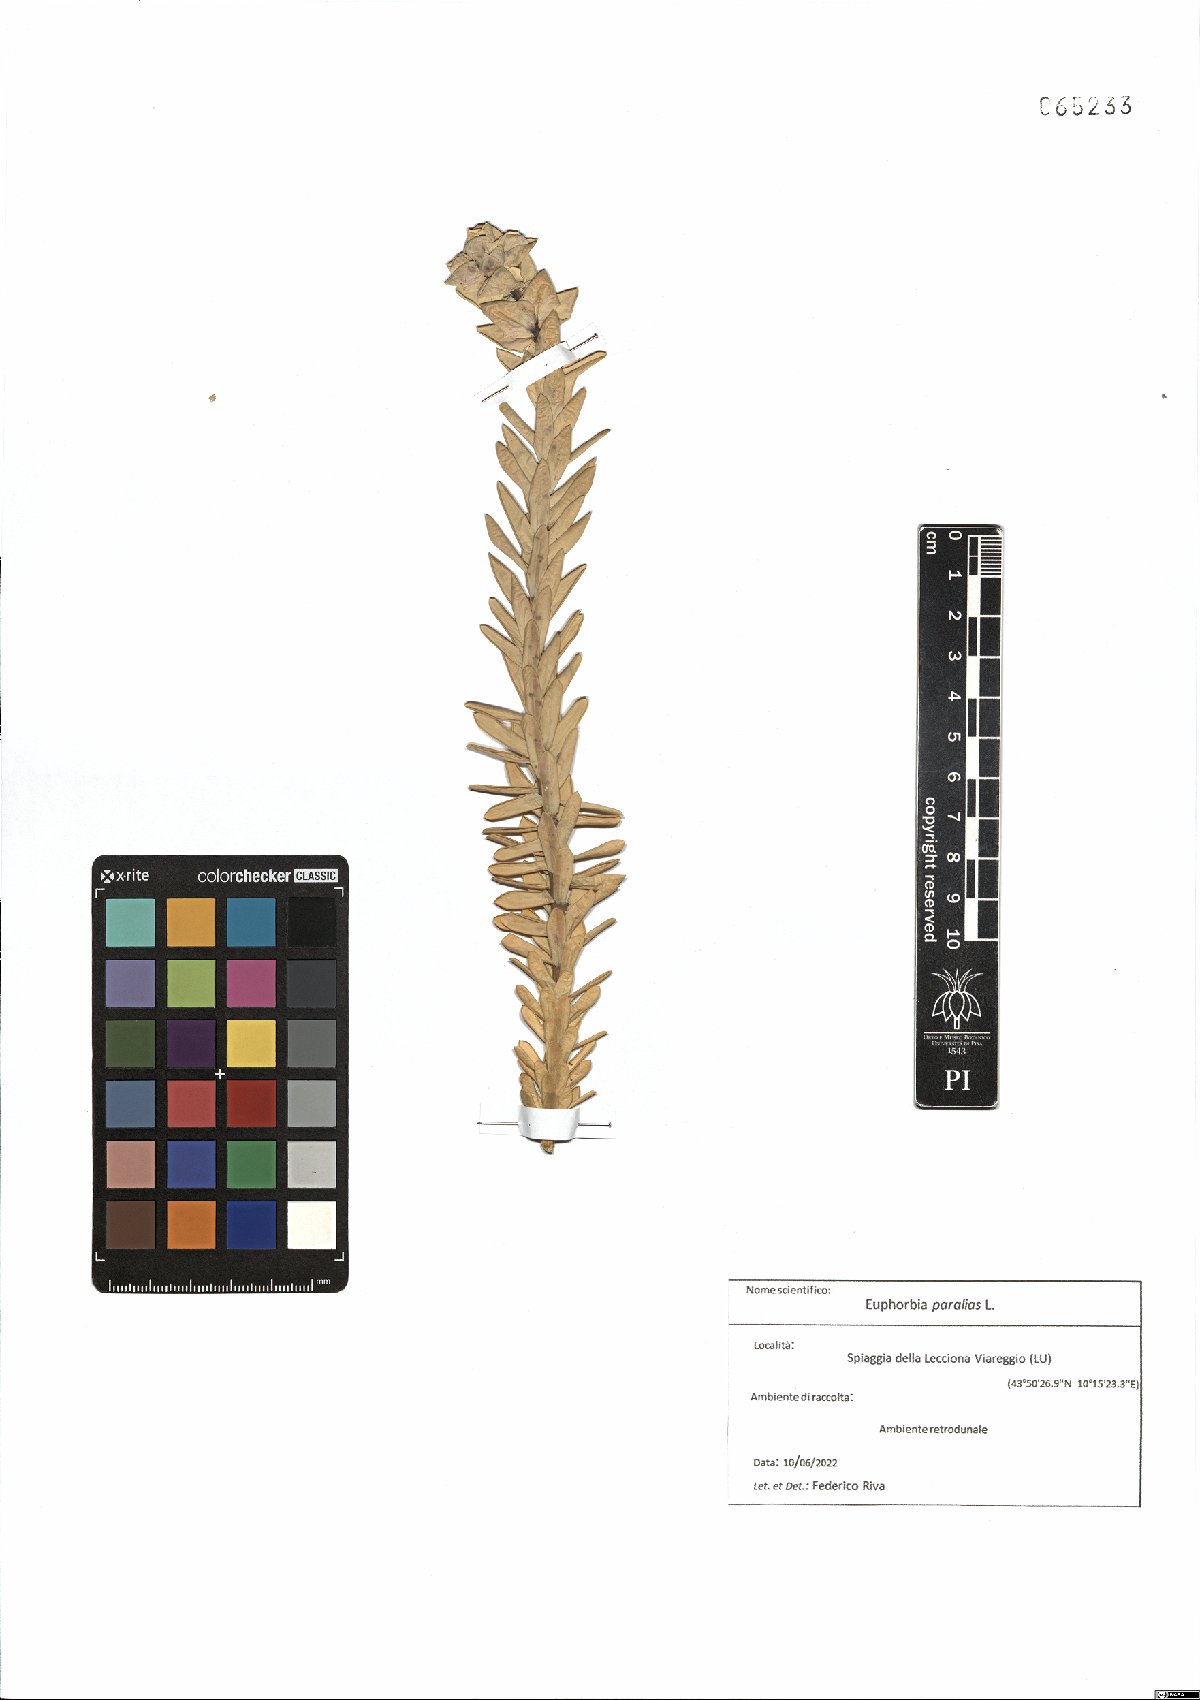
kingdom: Plantae
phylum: Tracheophyta
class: Magnoliopsida
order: Malpighiales
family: Euphorbiaceae
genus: Euphorbia
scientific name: Euphorbia paralias
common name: Sea spurge
